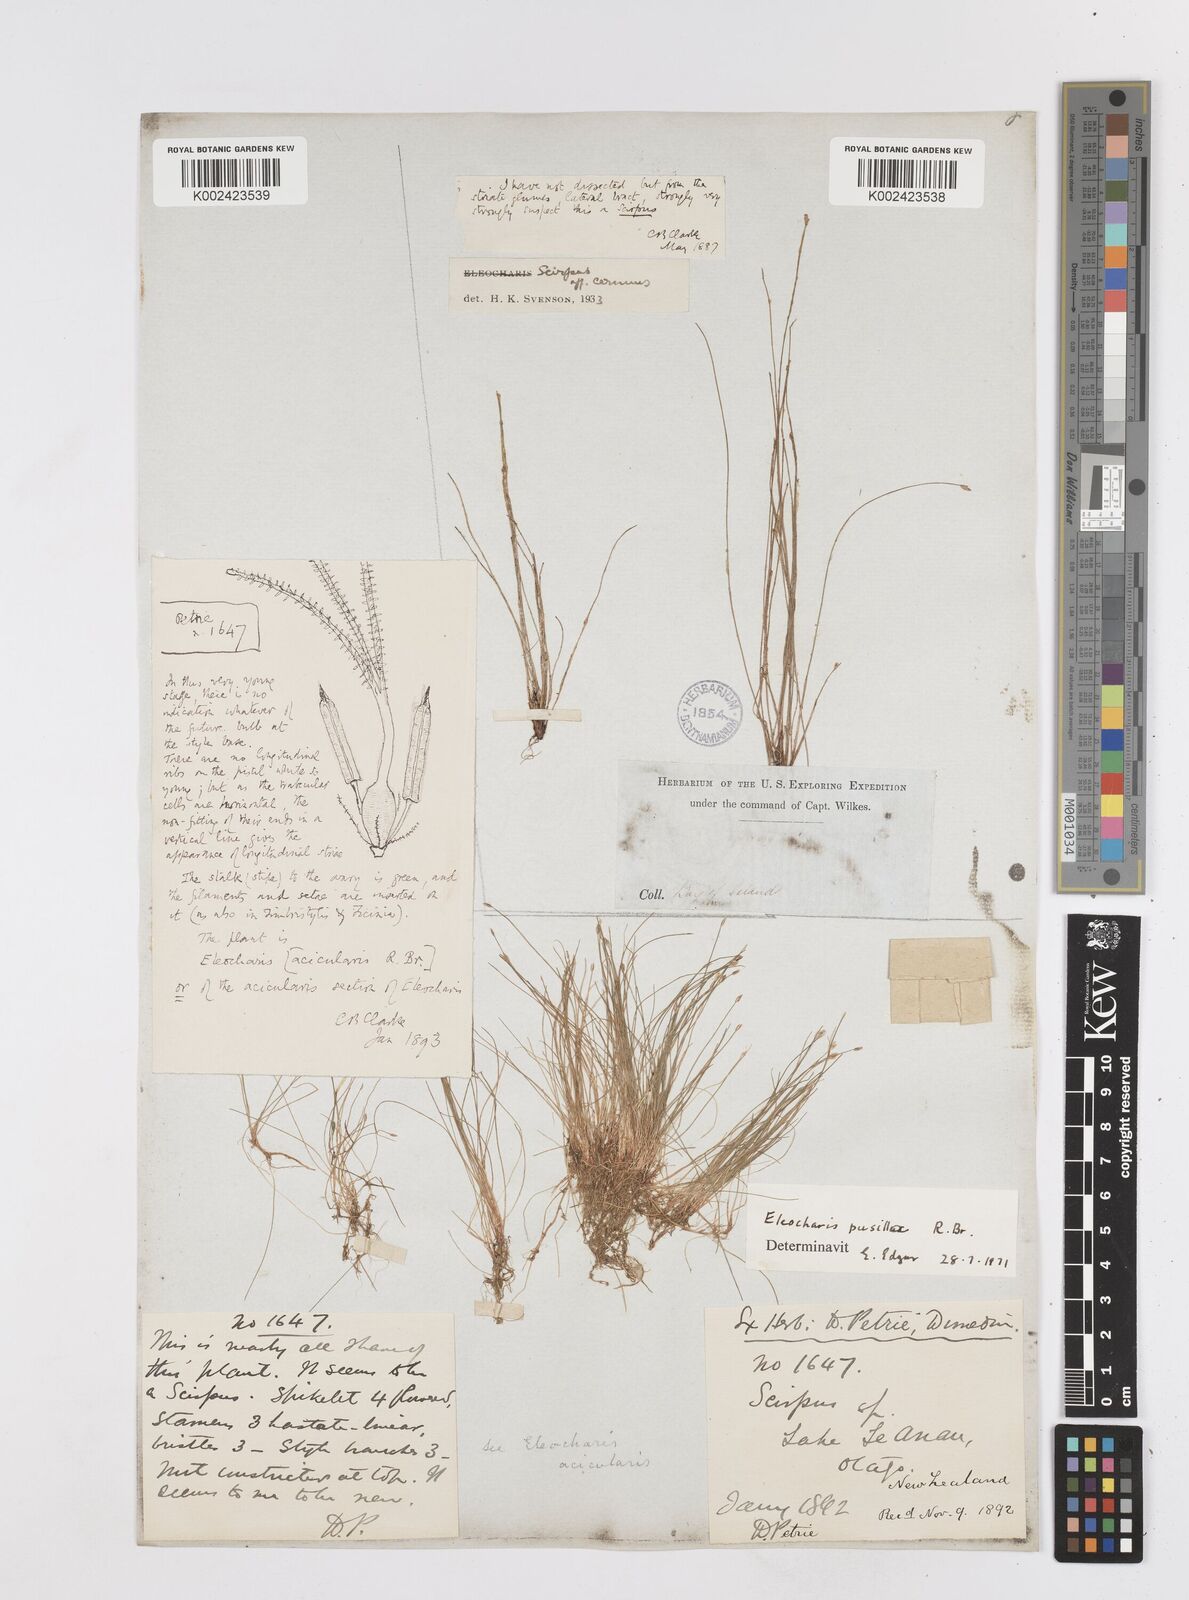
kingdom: Plantae
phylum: Tracheophyta
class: Liliopsida
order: Poales
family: Cyperaceae
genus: Eleocharis
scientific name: Eleocharis pusilla
